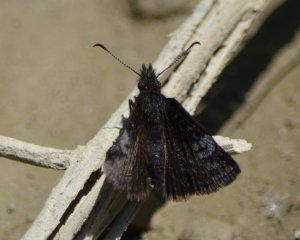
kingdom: Animalia
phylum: Arthropoda
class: Insecta
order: Lepidoptera
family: Hesperiidae
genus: Erynnis
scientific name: Erynnis icelus
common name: Dreamy Duskywing
